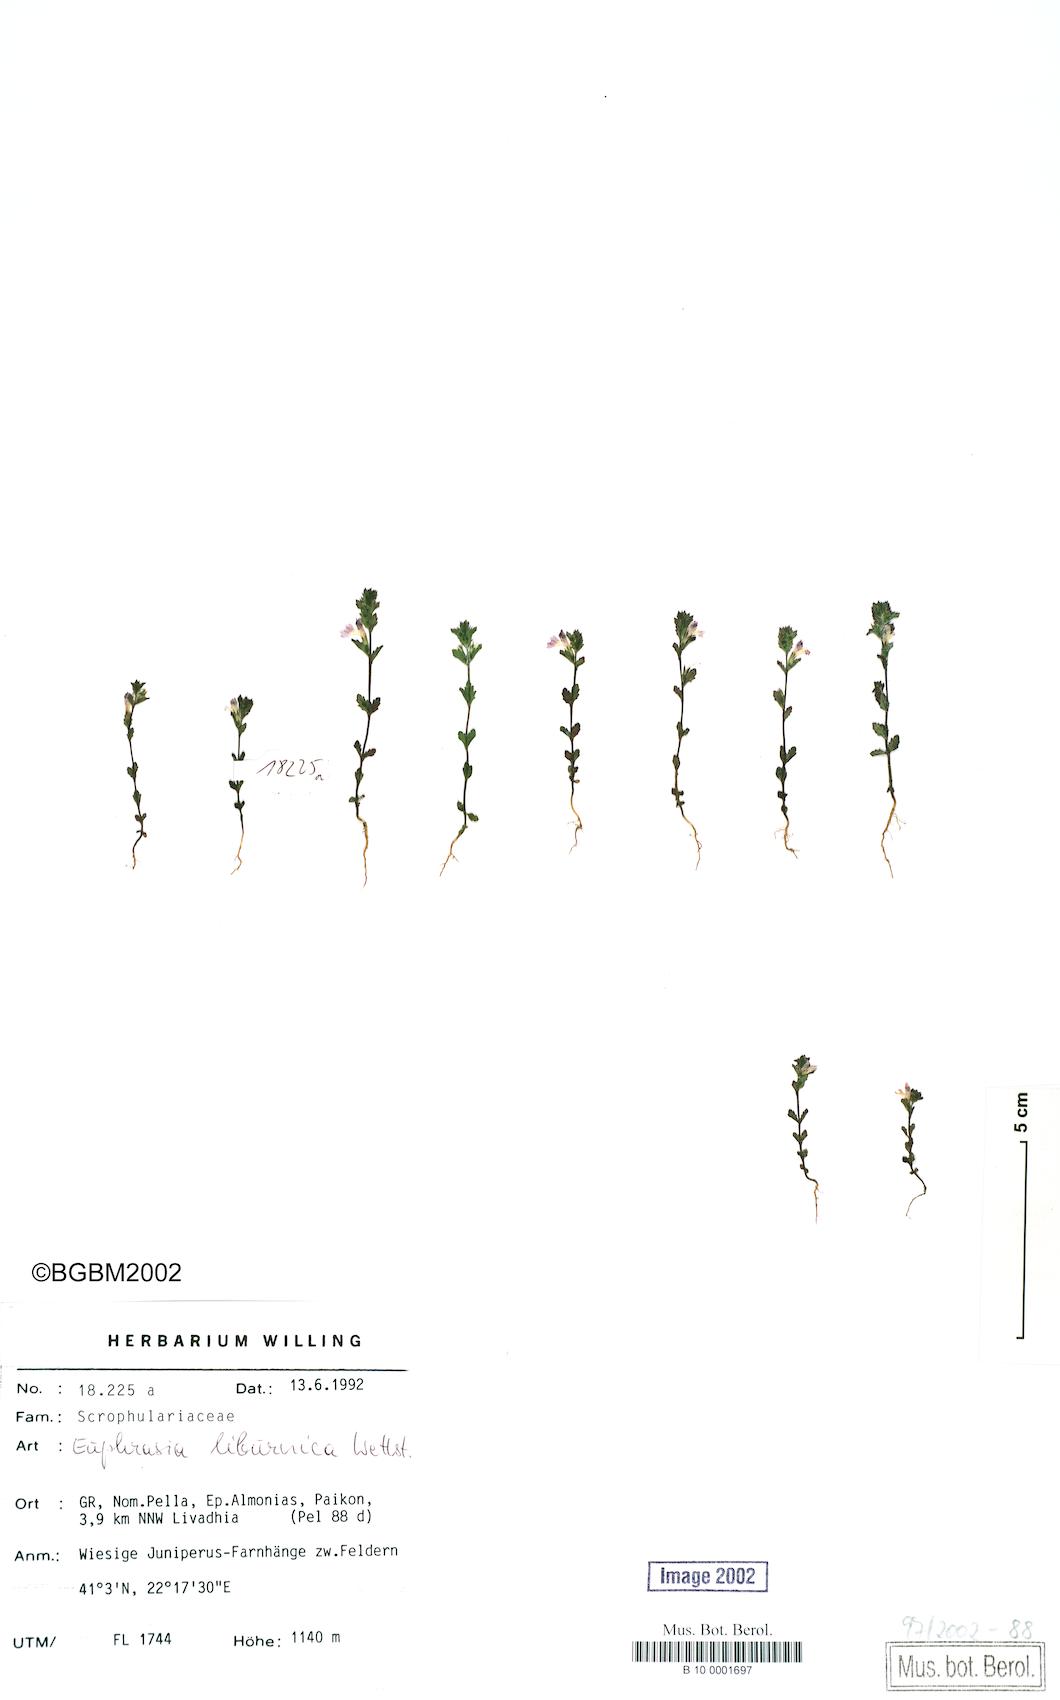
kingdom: Plantae
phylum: Tracheophyta
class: Magnoliopsida
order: Lamiales
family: Orobanchaceae
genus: Euphrasia
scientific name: Euphrasia liburnica
